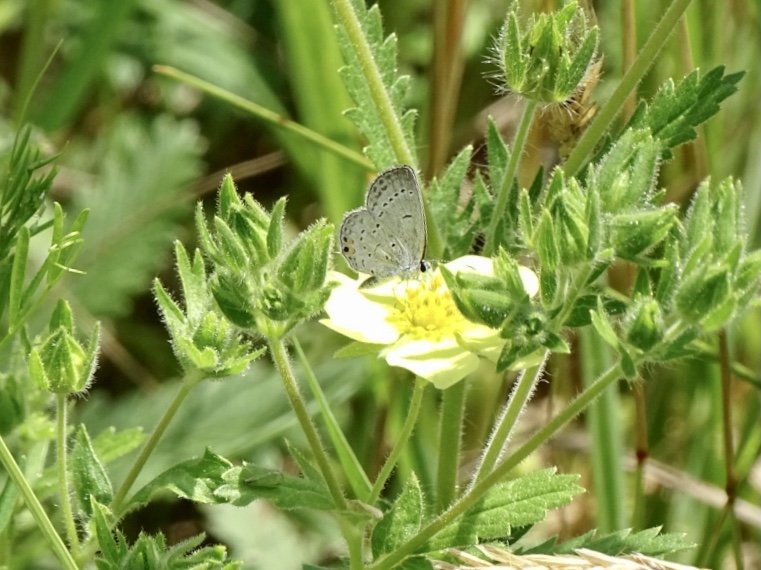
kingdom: Animalia
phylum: Arthropoda
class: Insecta
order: Lepidoptera
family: Lycaenidae
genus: Elkalyce
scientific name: Elkalyce comyntas
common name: Eastern Tailed-Blue
